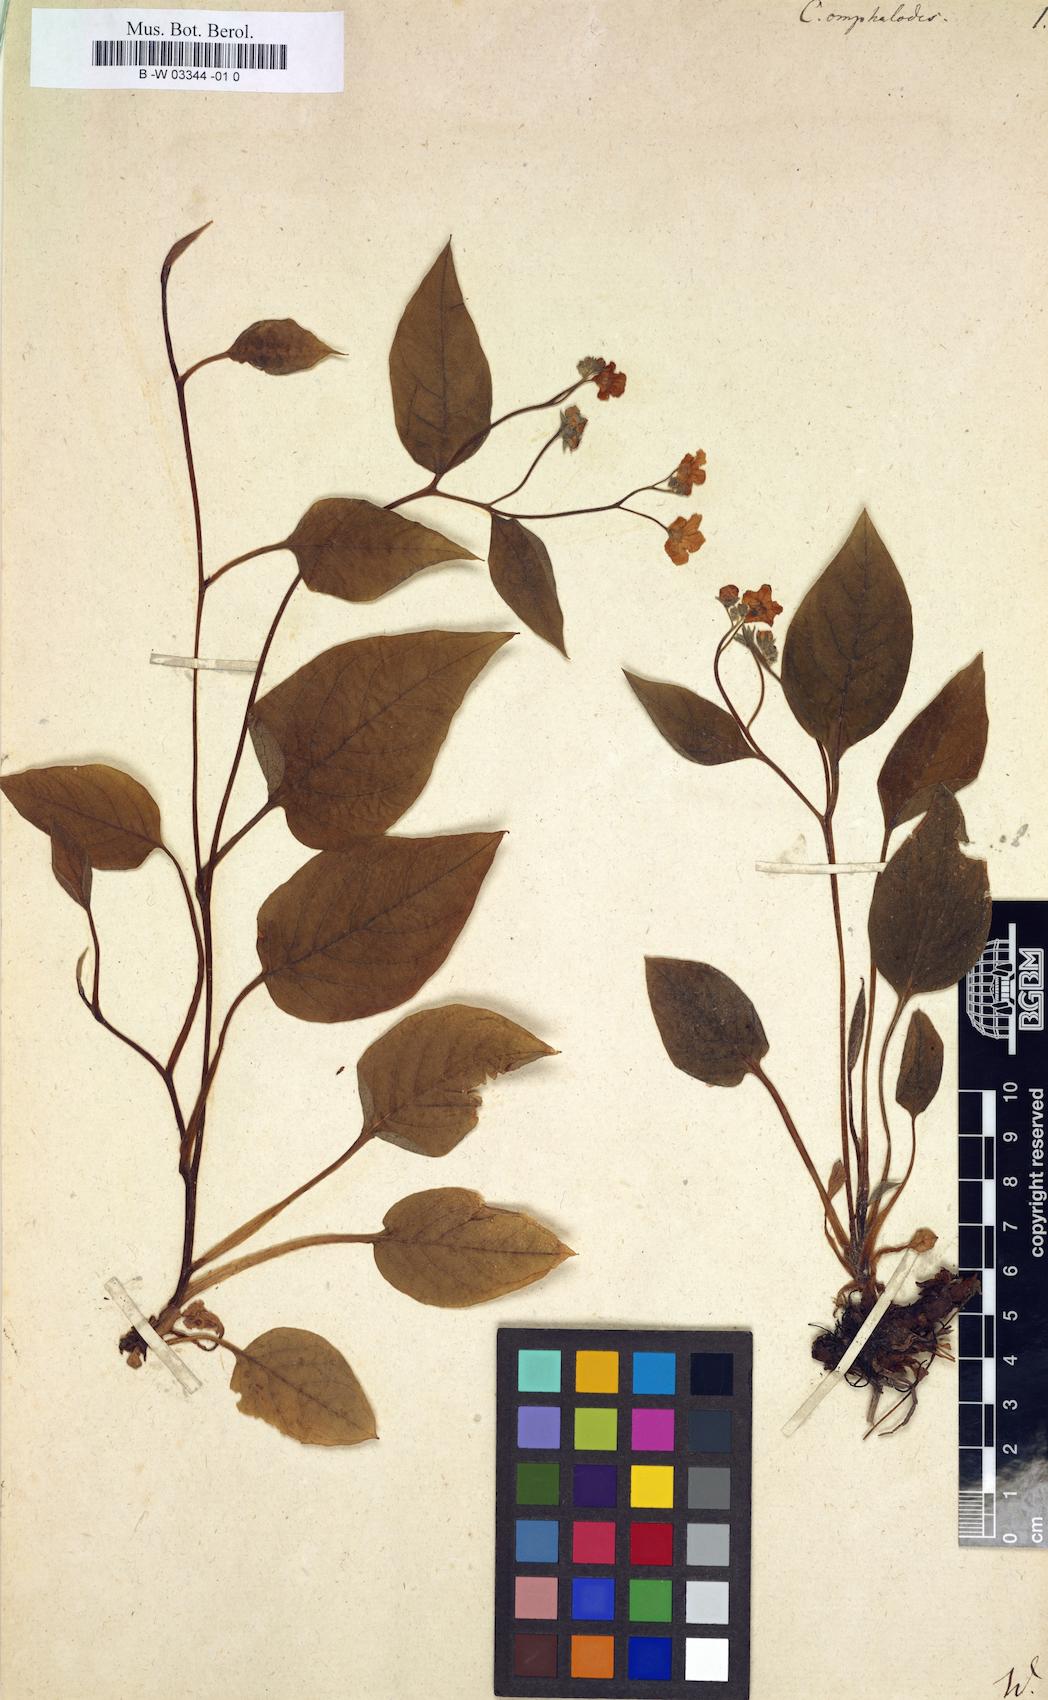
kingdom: Plantae
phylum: Tracheophyta
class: Magnoliopsida
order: Boraginales
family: Boraginaceae
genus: Omphalodes
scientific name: Omphalodes verna
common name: Blue-eyed-mary
